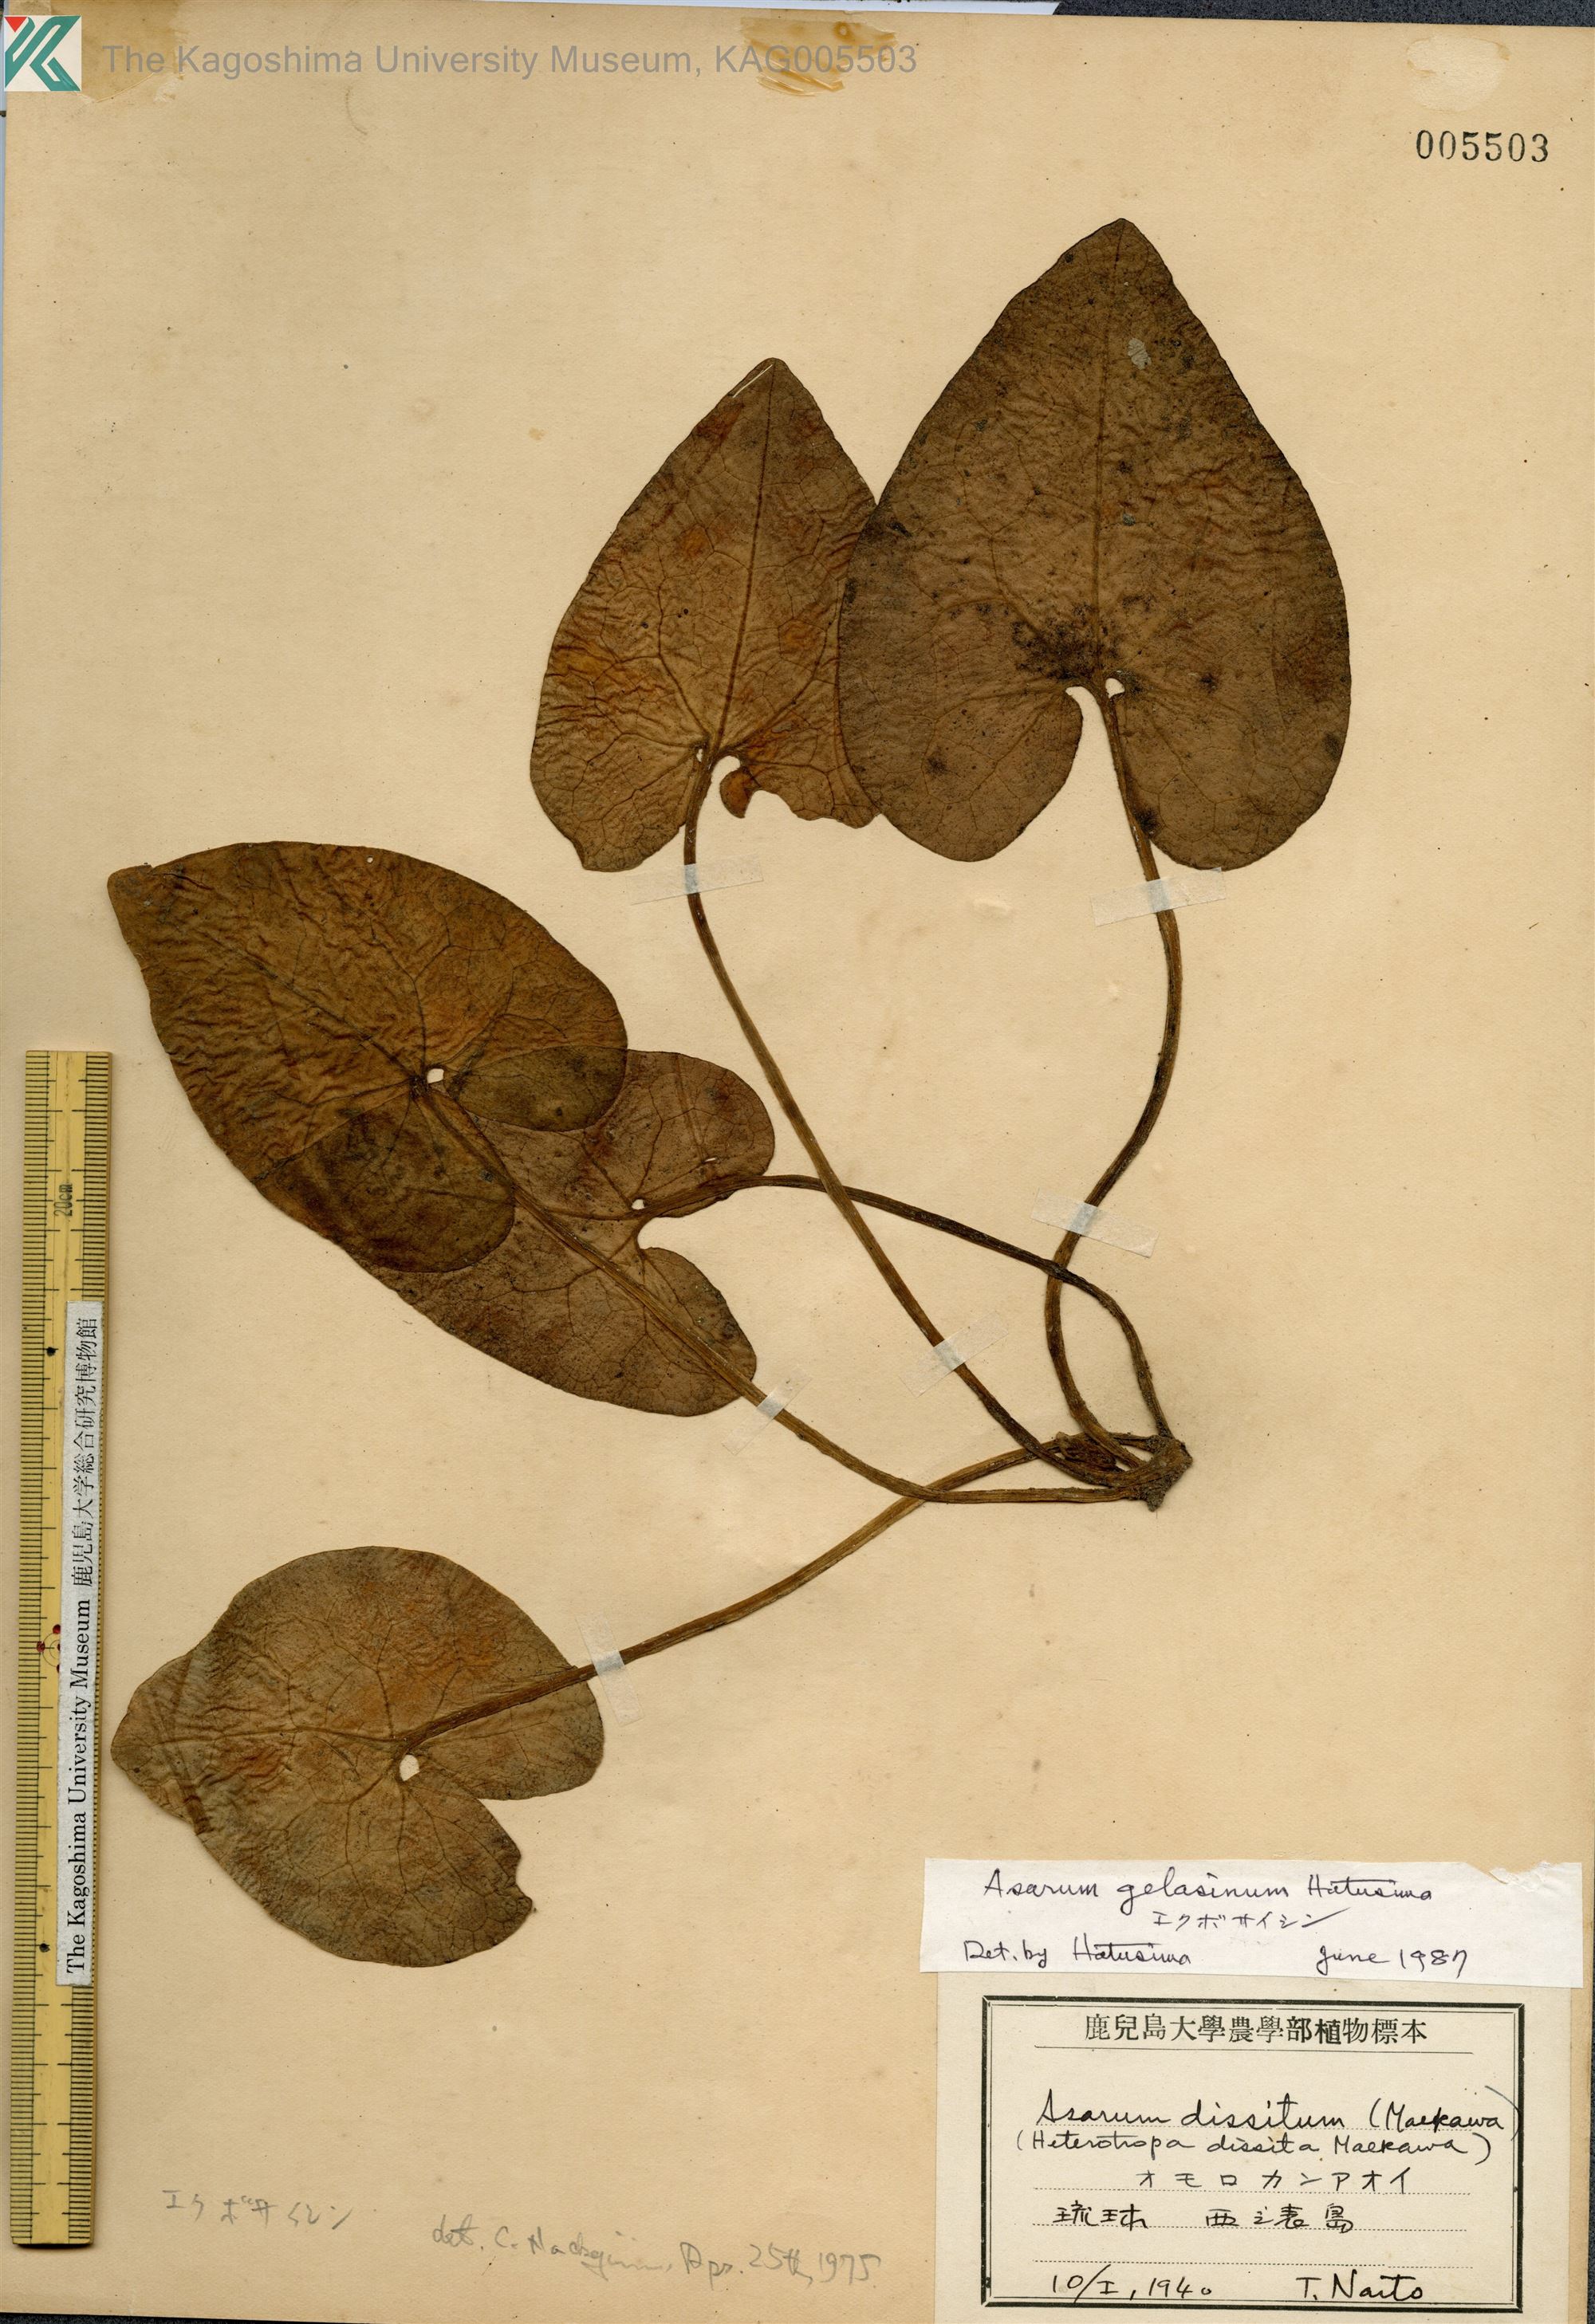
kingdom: Plantae
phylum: Tracheophyta
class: Magnoliopsida
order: Piperales
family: Aristolochiaceae
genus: Asarum
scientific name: Asarum gelasinum
